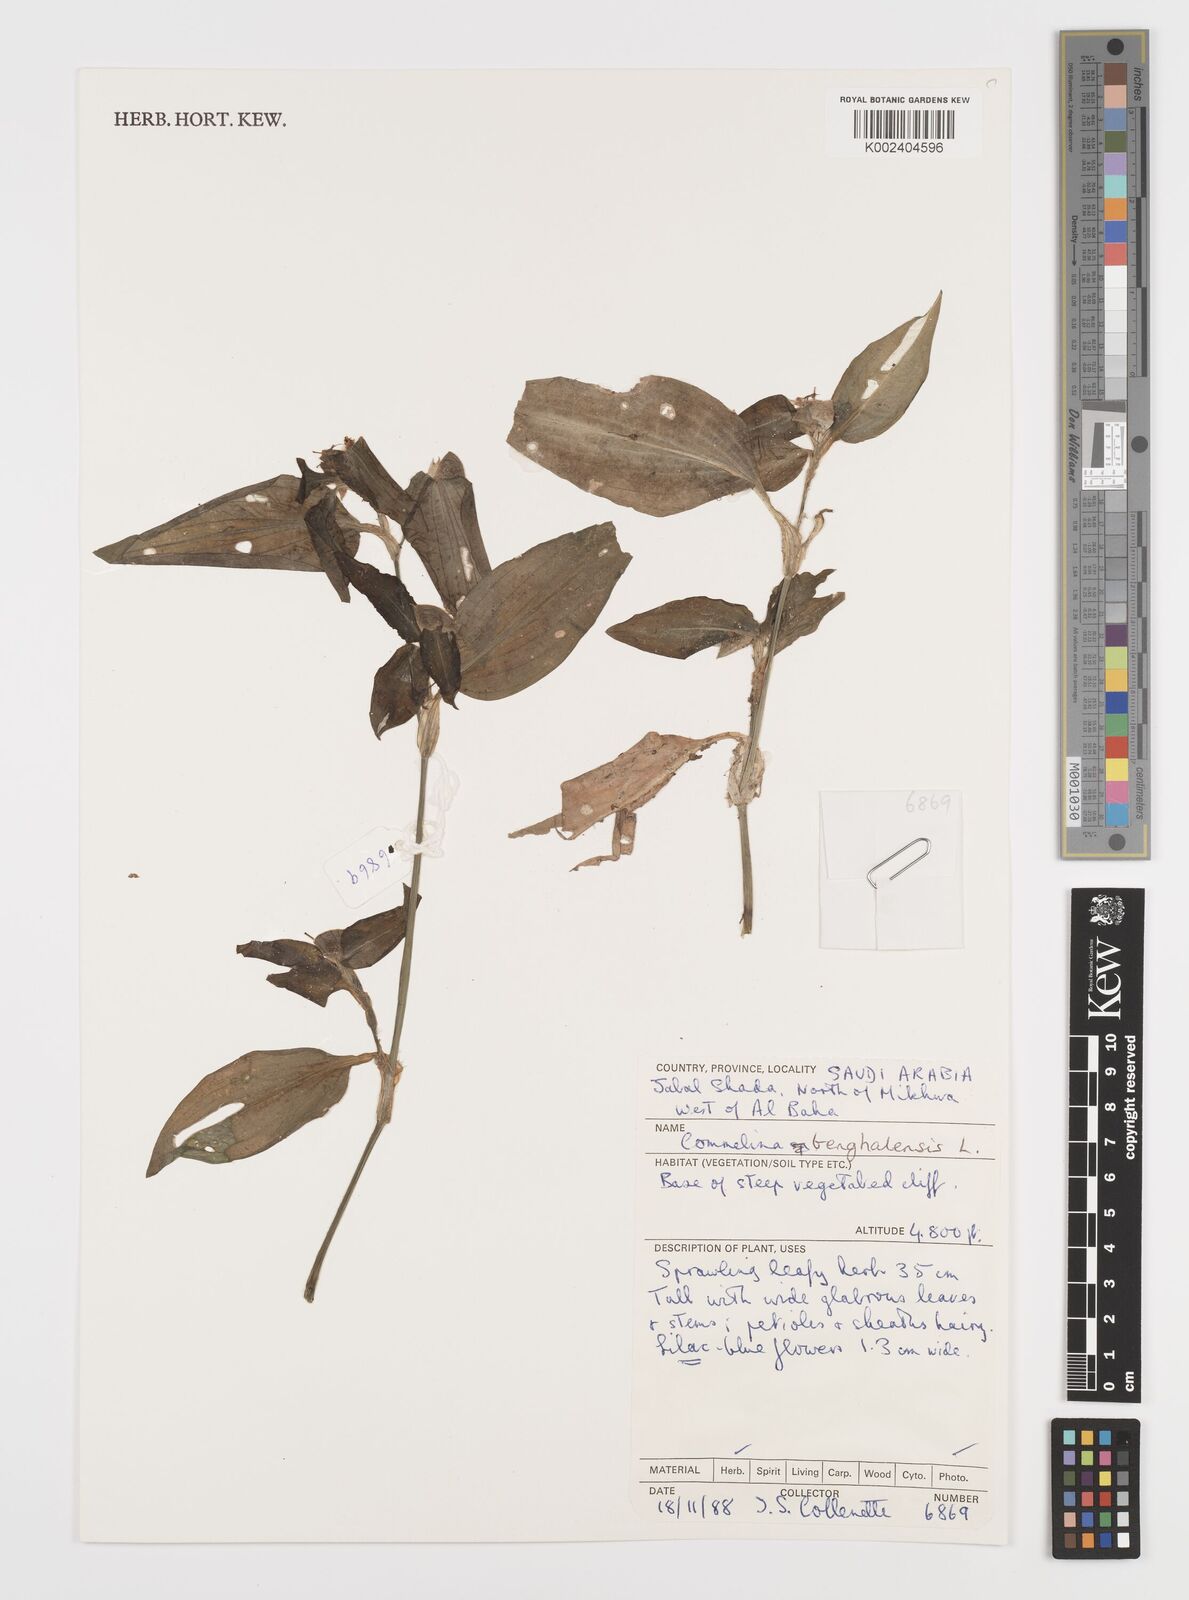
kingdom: Plantae
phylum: Tracheophyta
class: Liliopsida
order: Commelinales
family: Commelinaceae
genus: Commelina
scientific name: Commelina benghalensis
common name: Jio
